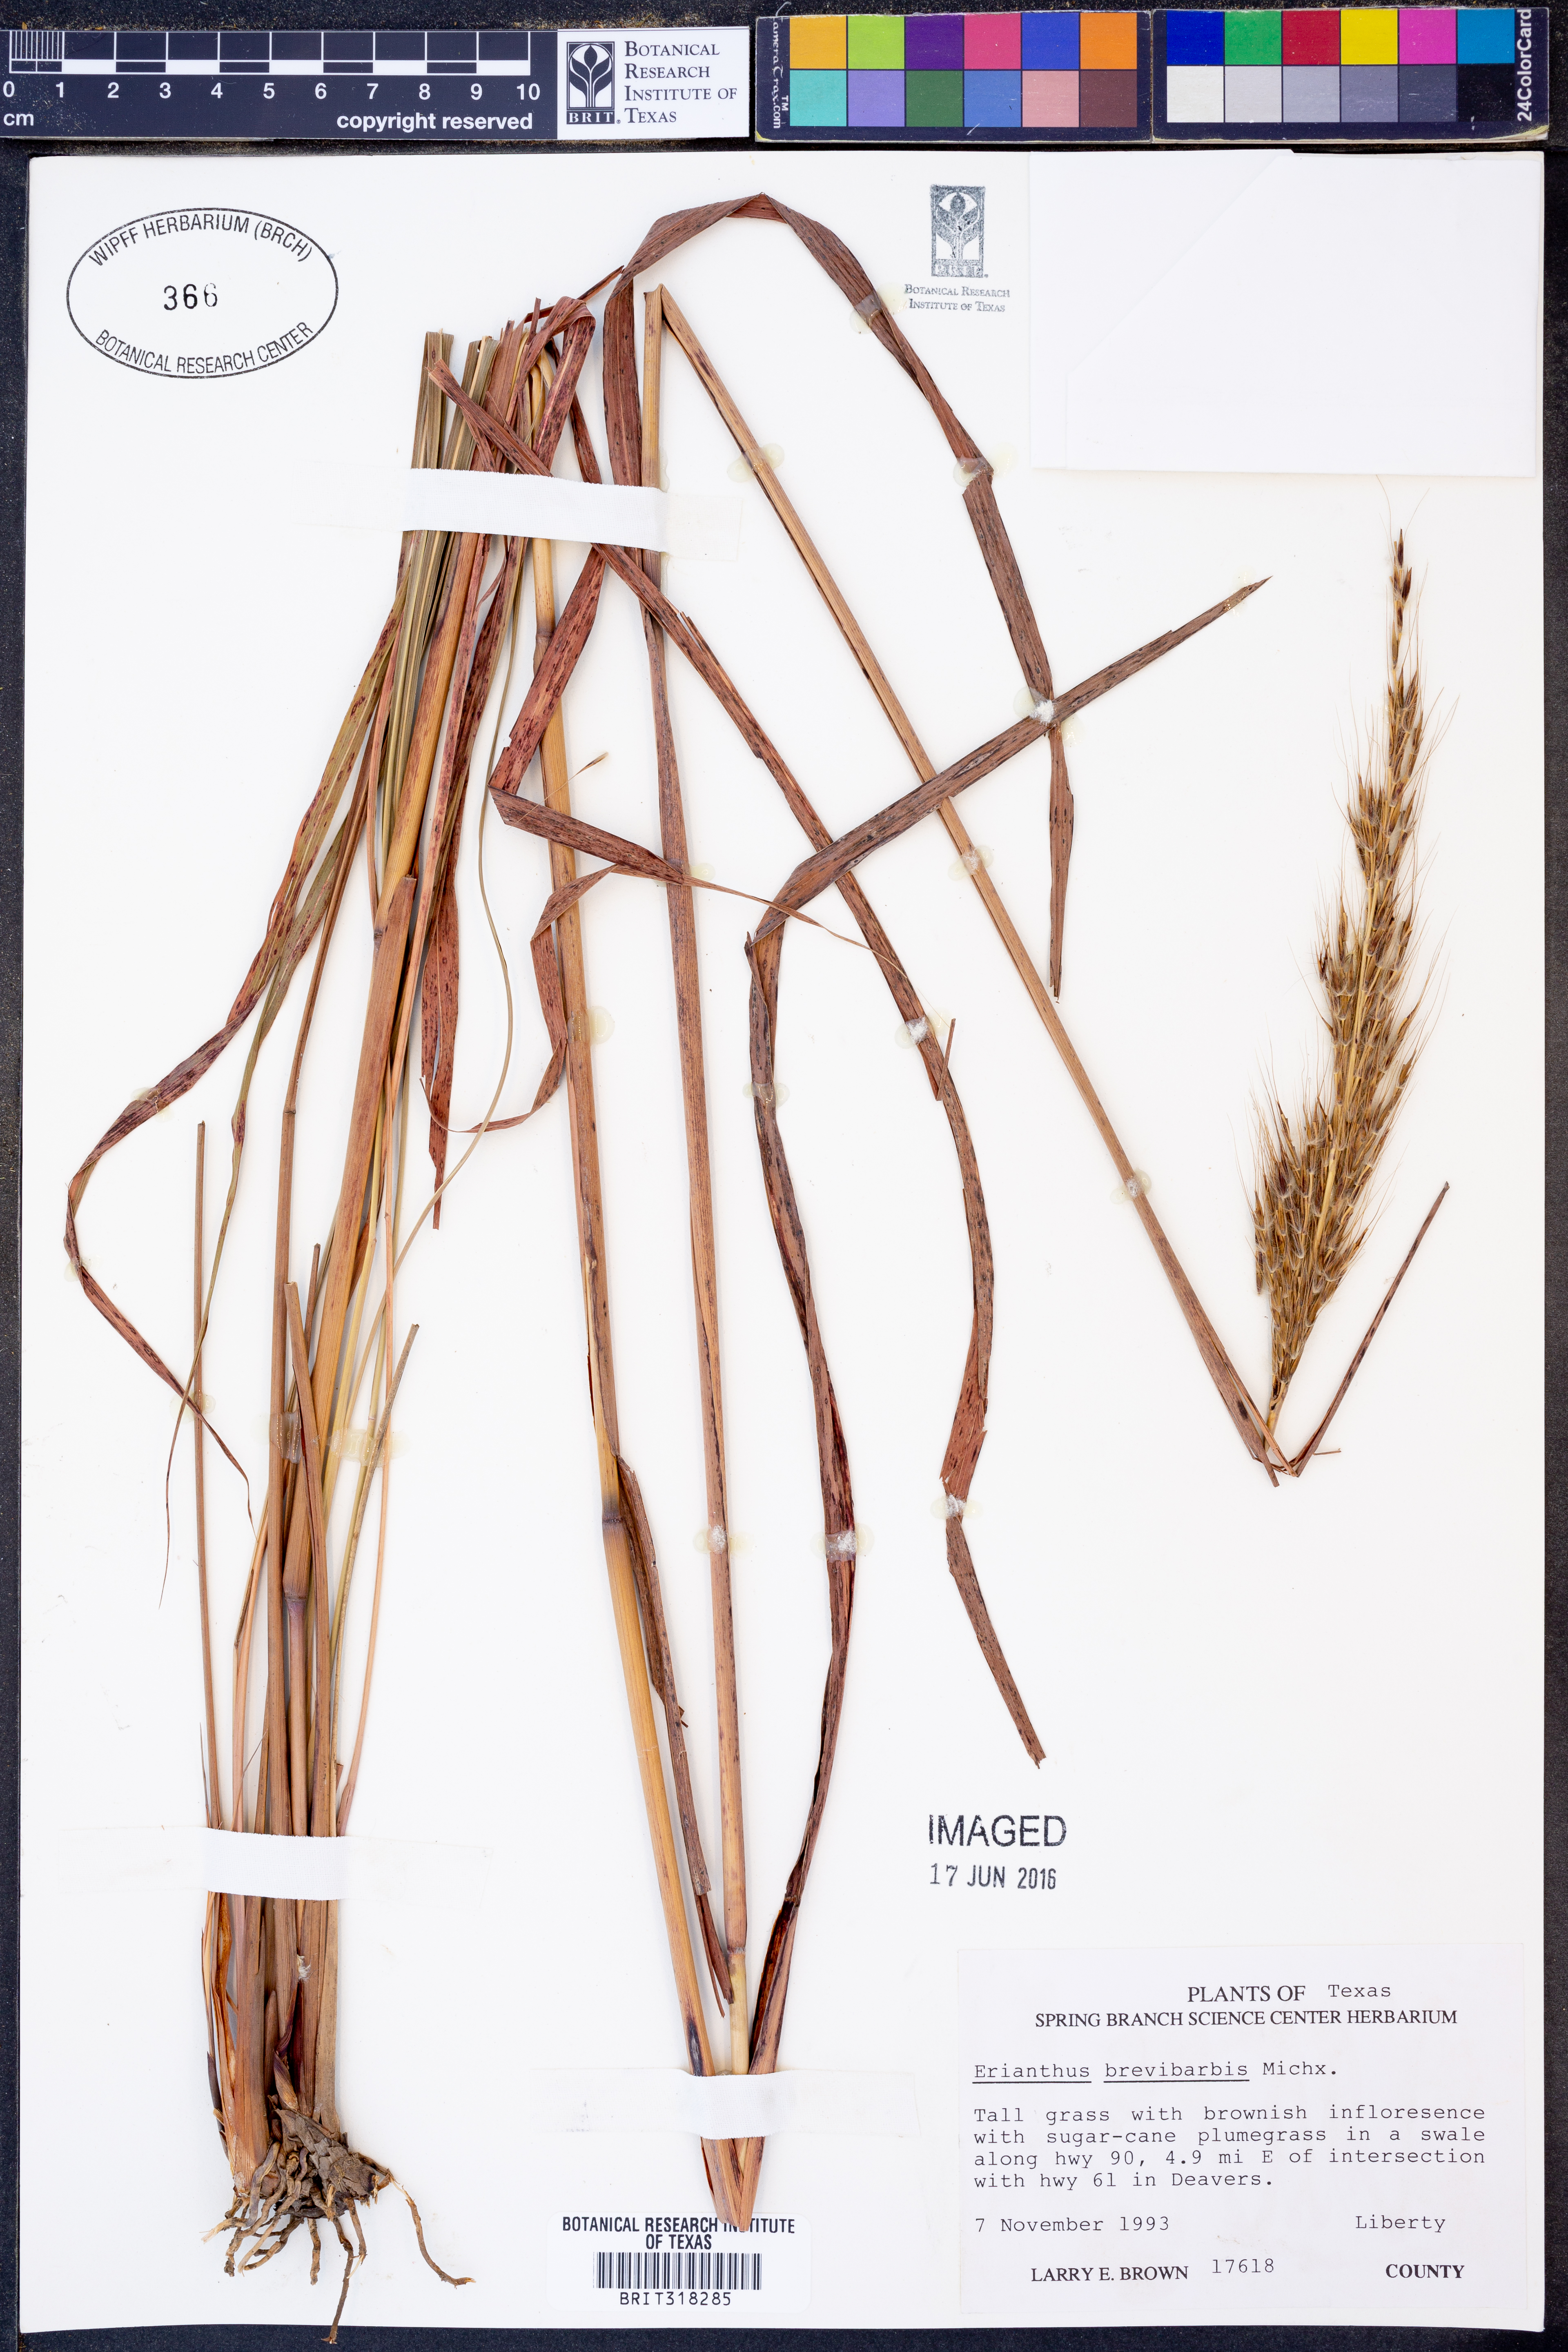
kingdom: Plantae
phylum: Tracheophyta
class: Liliopsida
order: Poales
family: Poaceae
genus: Erianthus
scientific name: Erianthus brevibarbis
